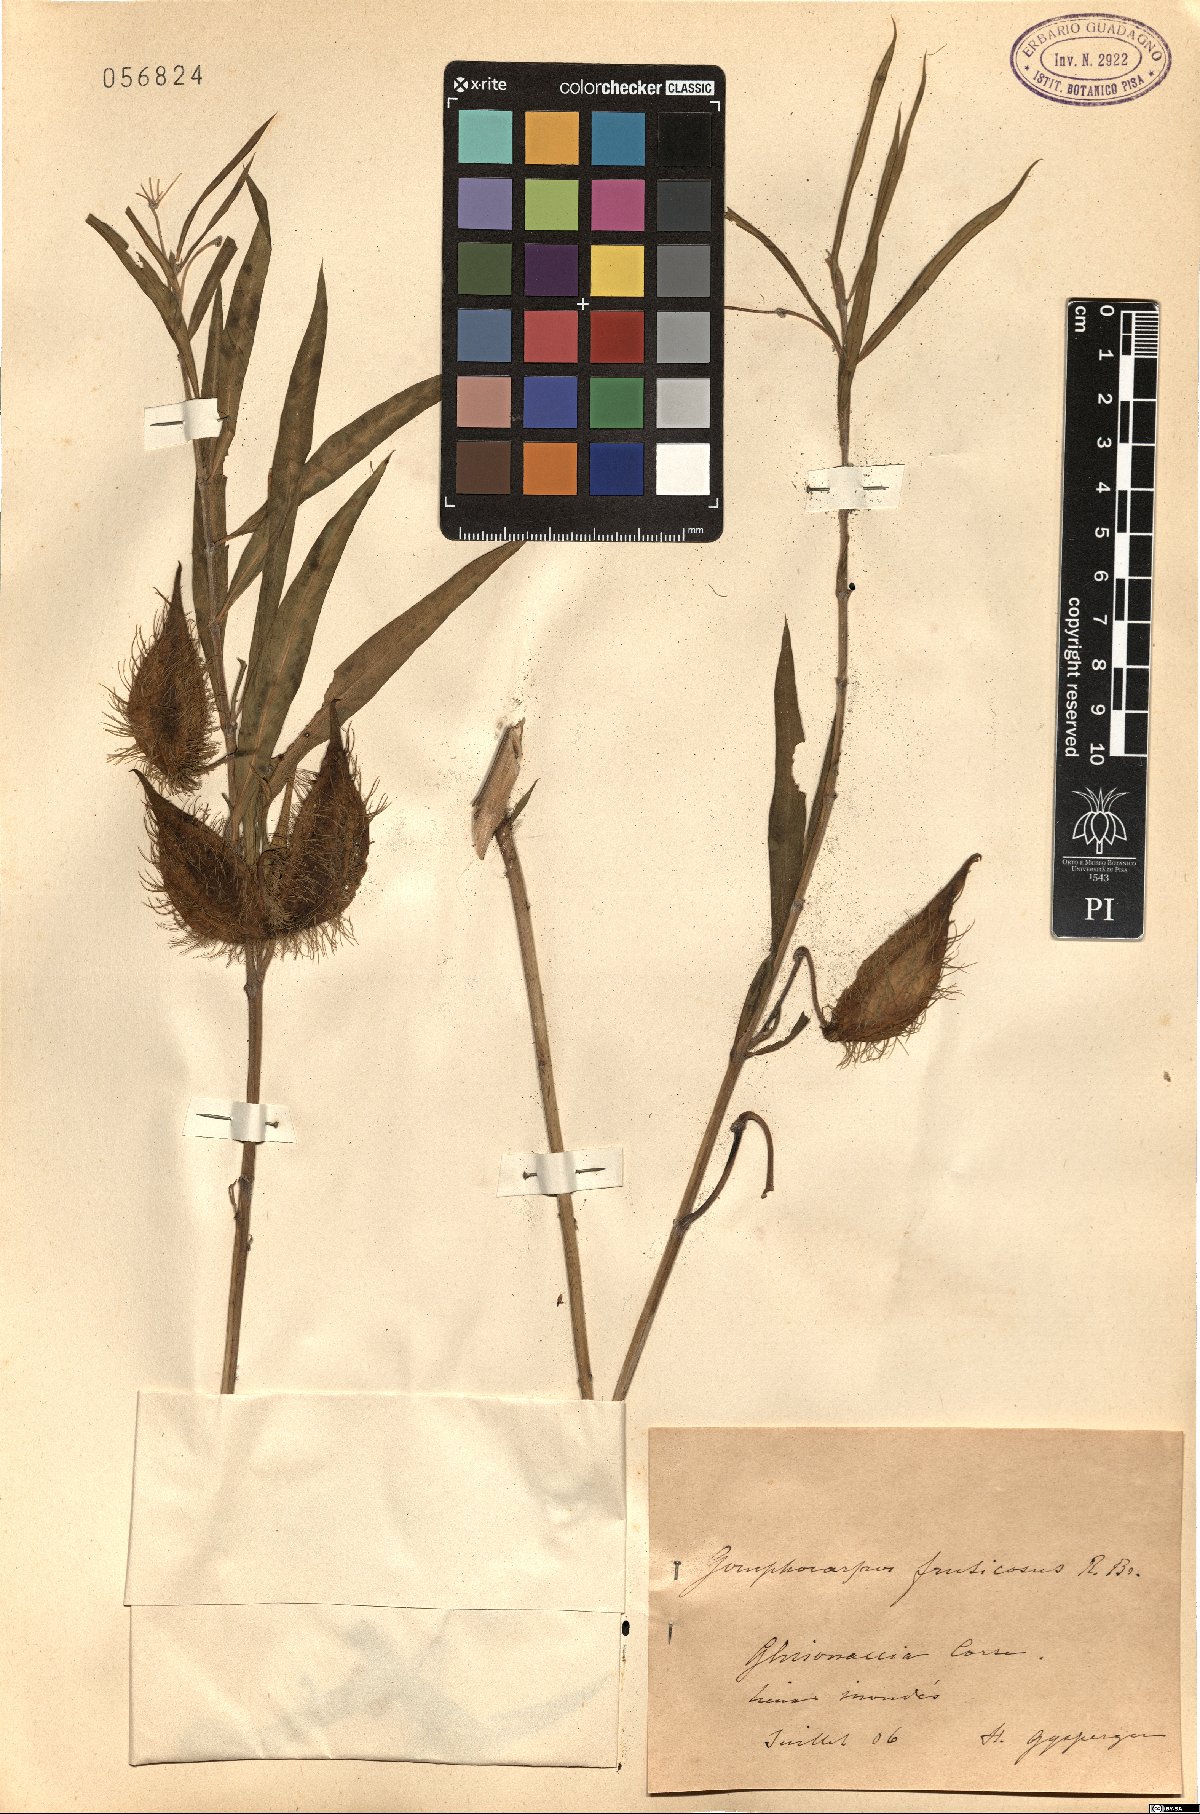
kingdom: Plantae
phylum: Tracheophyta
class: Magnoliopsida
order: Gentianales
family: Apocynaceae
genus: Gomphocarpus
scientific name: Gomphocarpus fruticosus
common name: Milkweed
